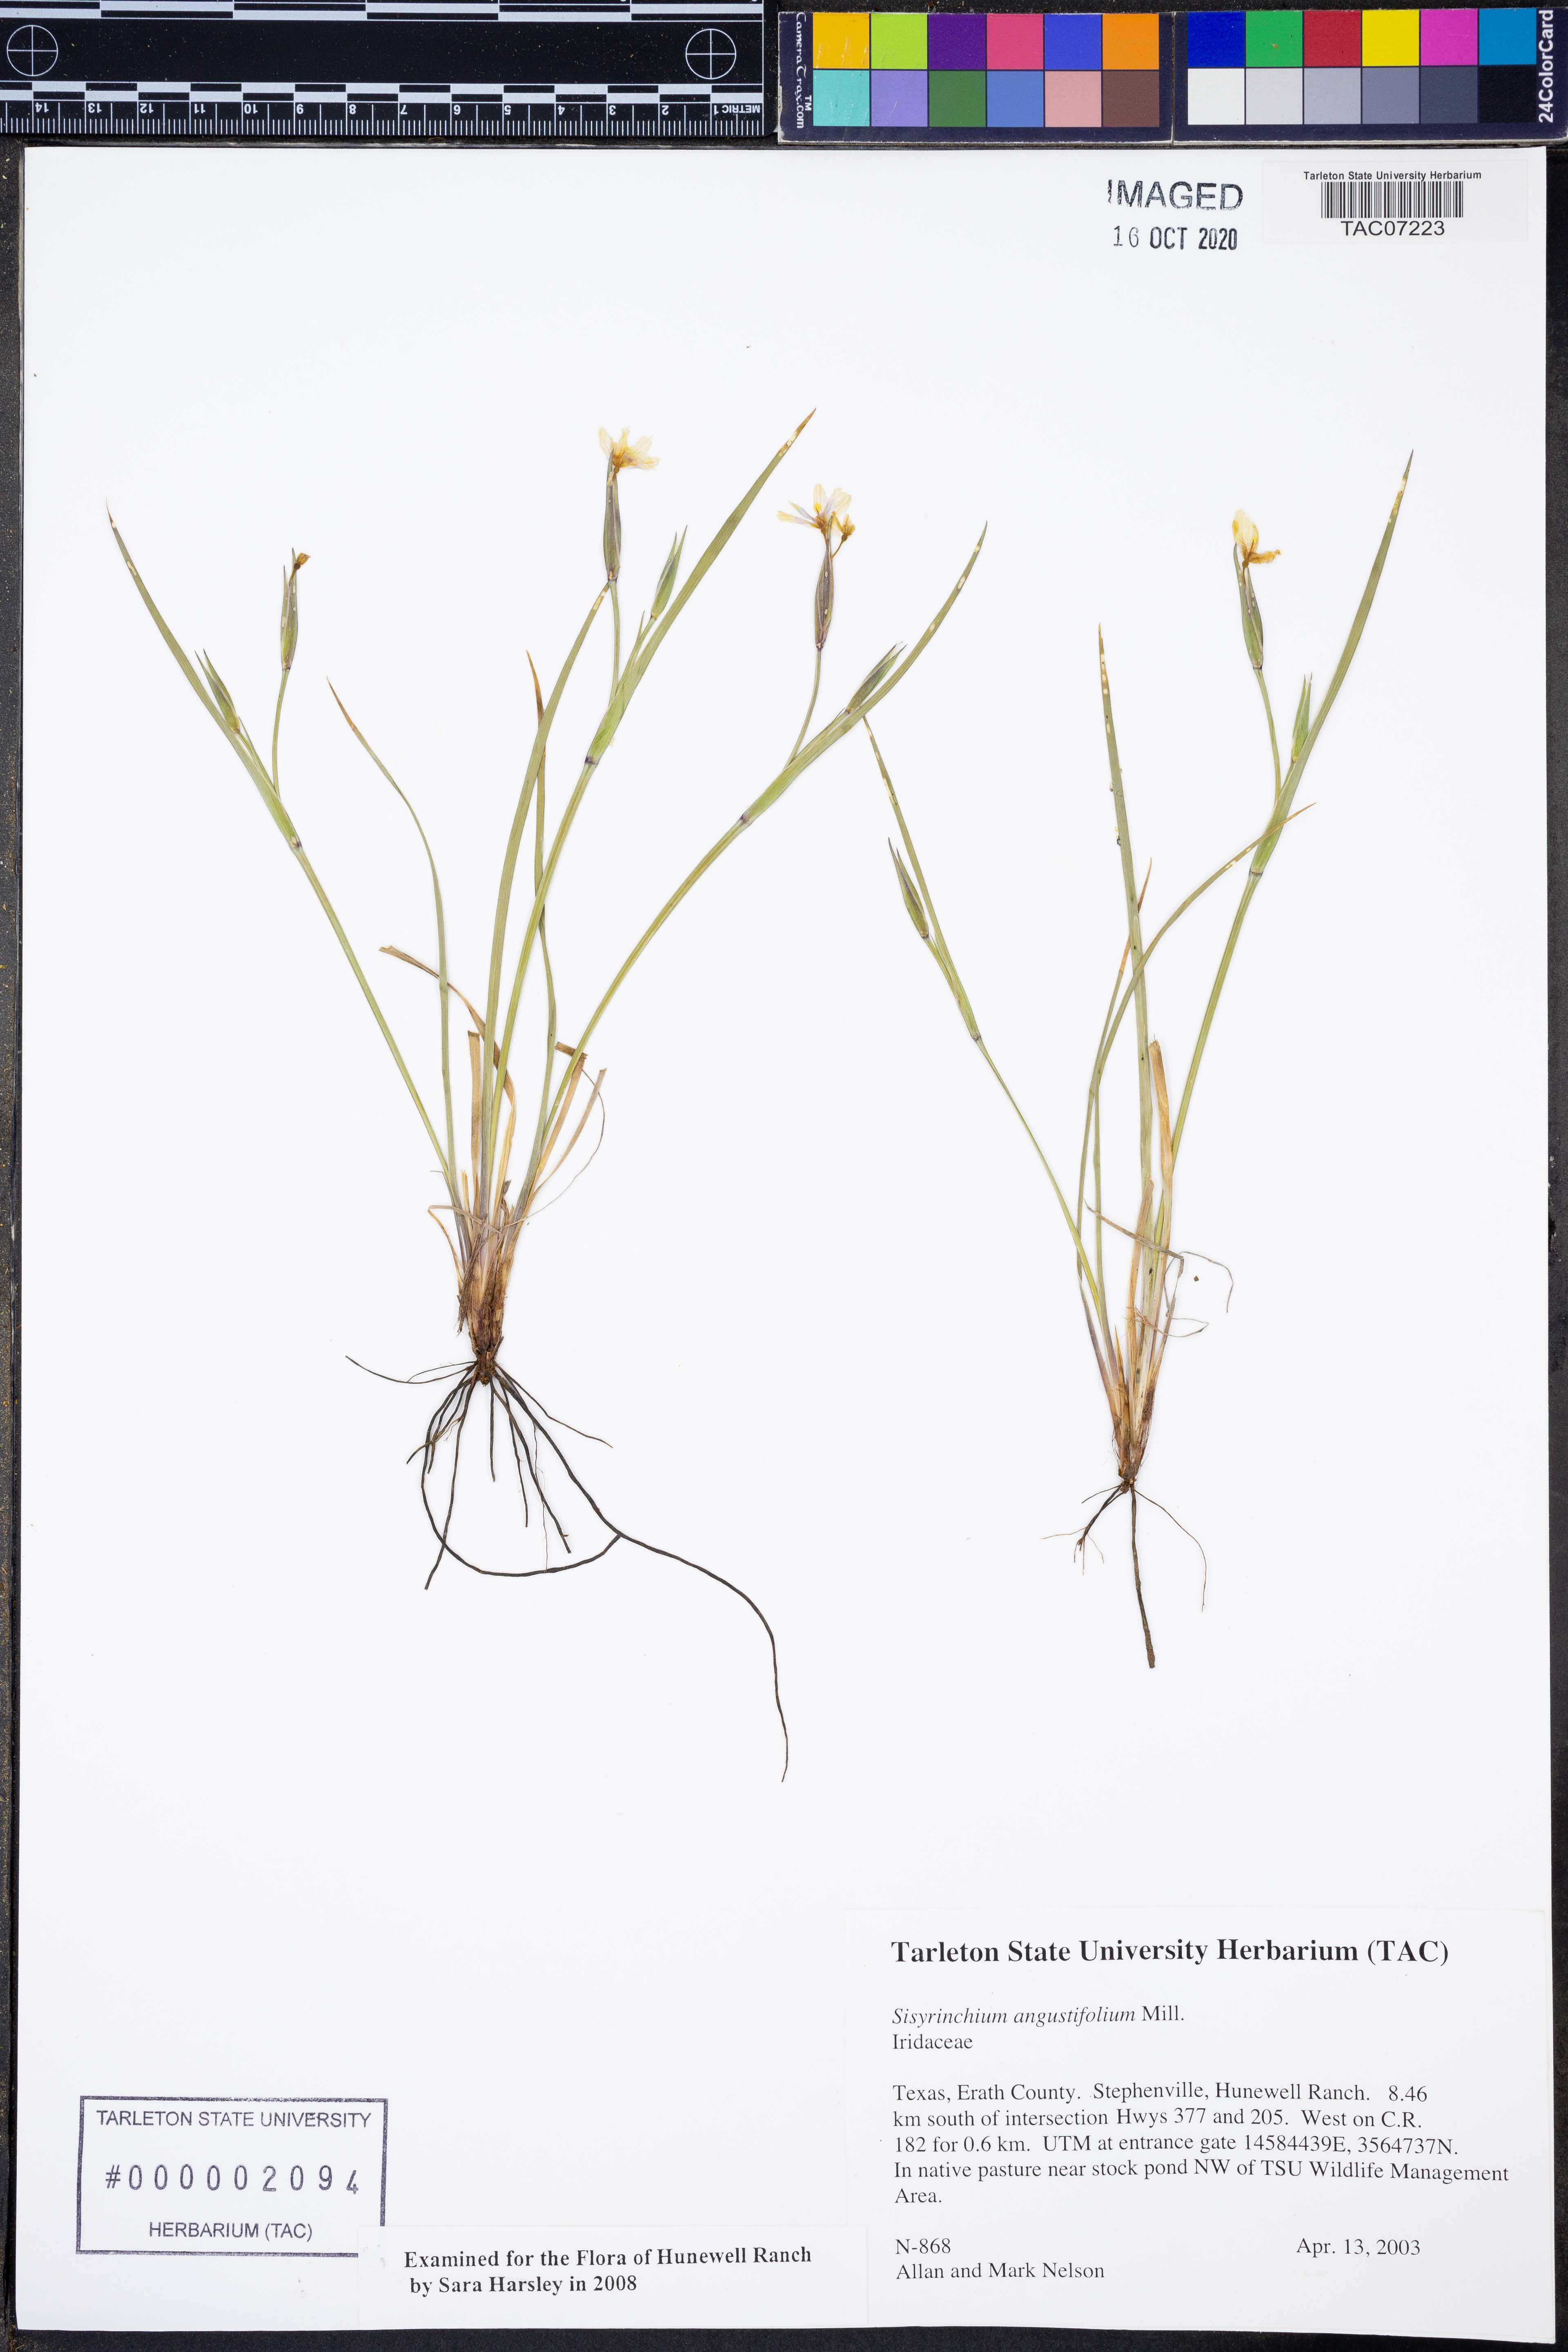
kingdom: Plantae
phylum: Tracheophyta
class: Liliopsida
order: Asparagales
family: Iridaceae
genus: Sisyrinchium
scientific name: Sisyrinchium angustifolium
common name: Narrow-leaf blue-eyed-grass
